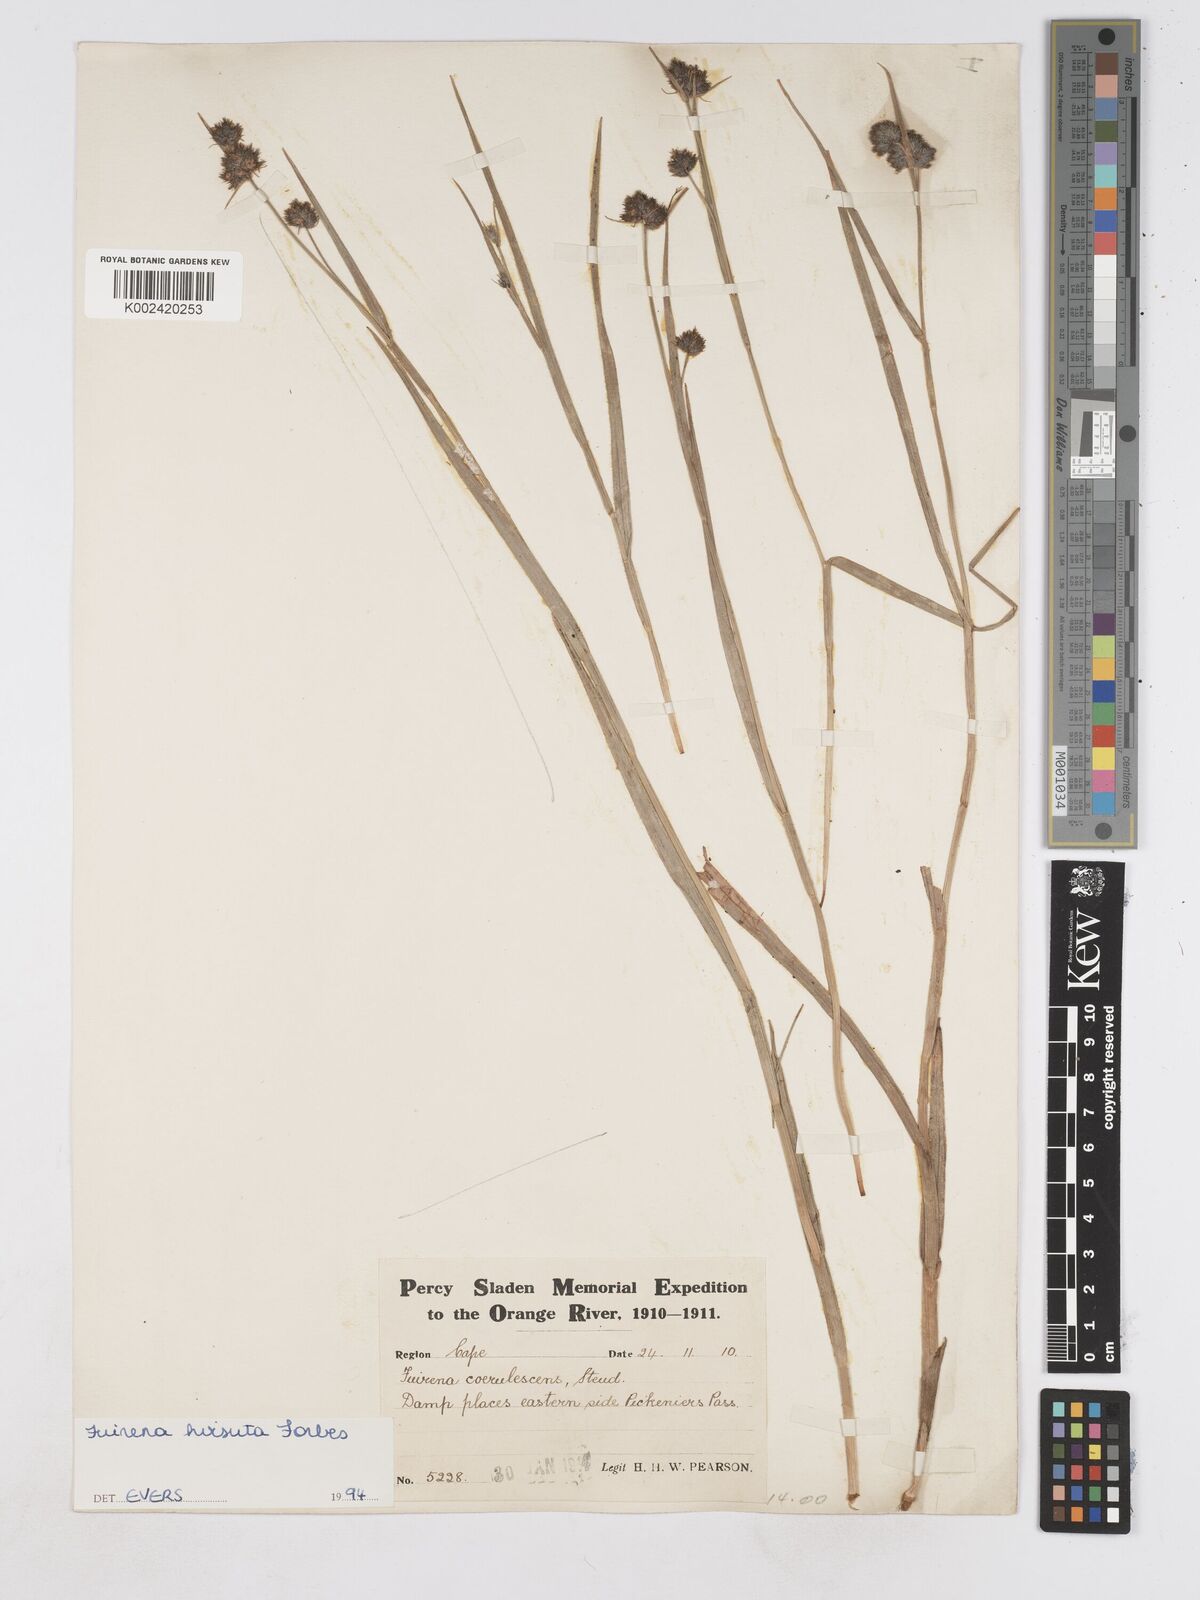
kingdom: Plantae
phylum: Tracheophyta
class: Liliopsida
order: Poales
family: Cyperaceae
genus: Fuirena
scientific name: Fuirena hirsuta
